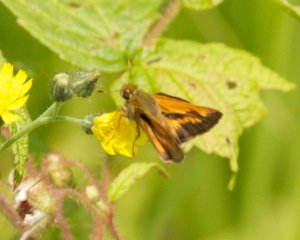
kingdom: Animalia
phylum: Arthropoda
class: Insecta
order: Lepidoptera
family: Hesperiidae
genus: Polites
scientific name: Polites
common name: Long Dash Skipper
